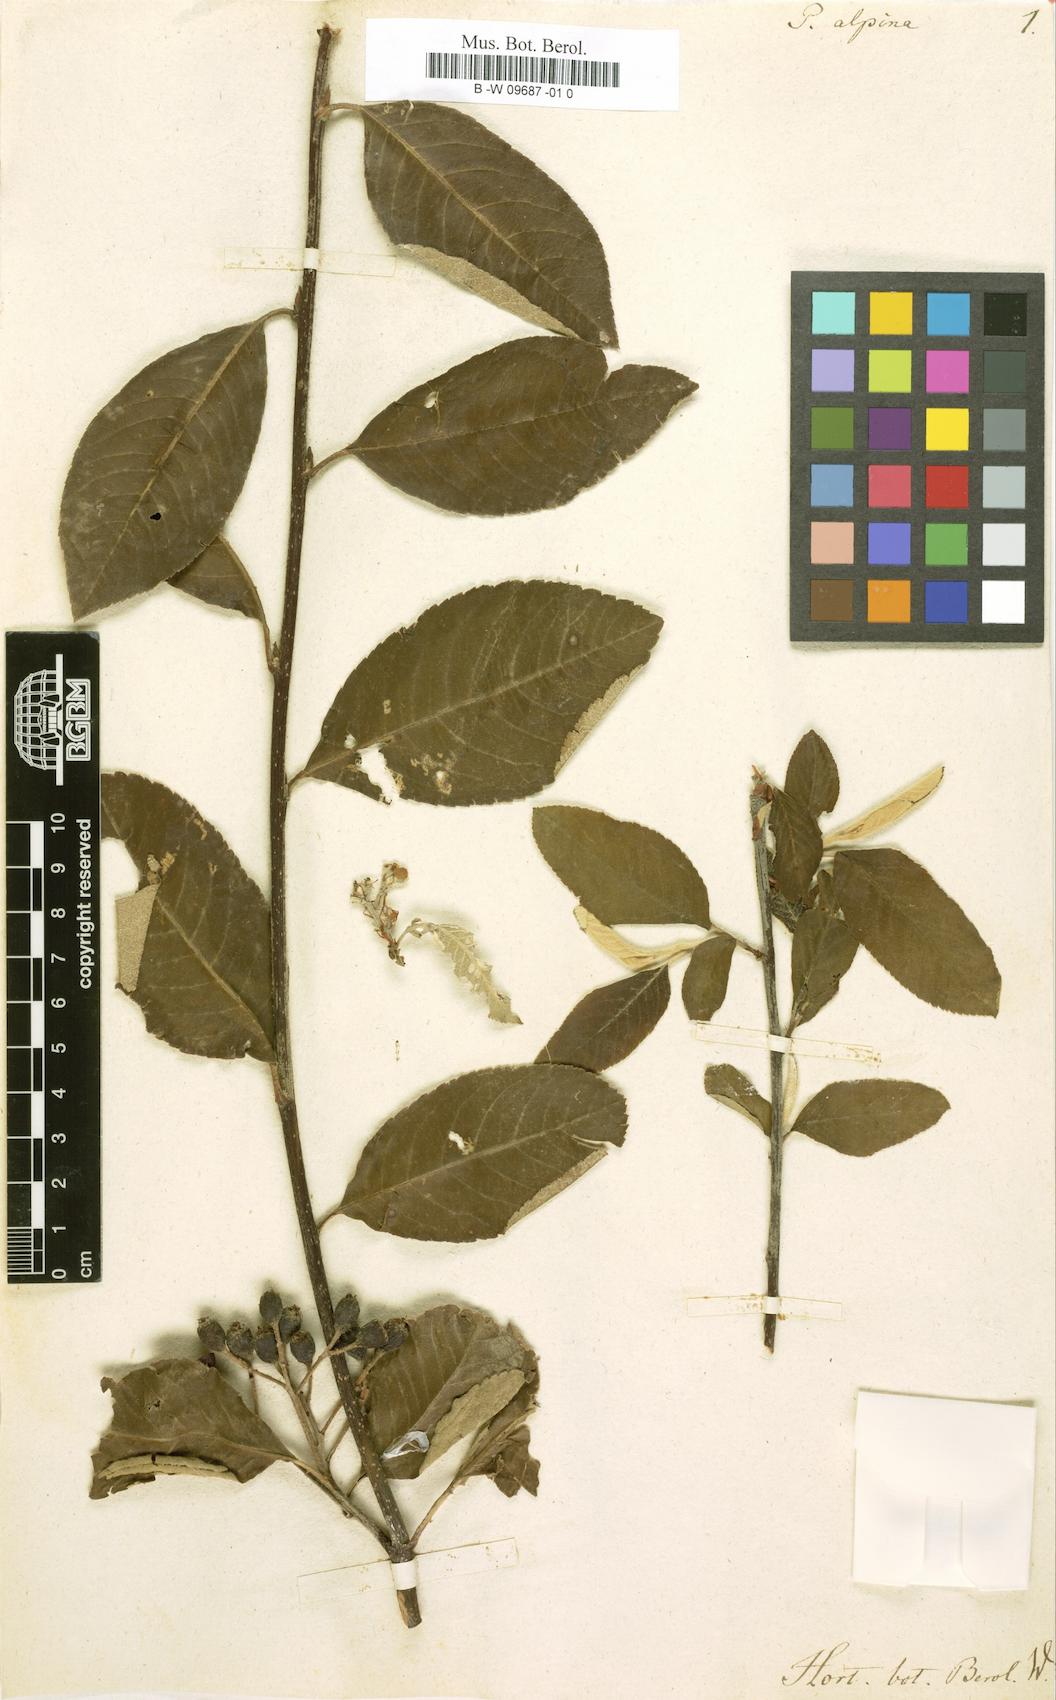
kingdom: Plantae
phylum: Tracheophyta
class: Magnoliopsida
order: Rosales
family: Rosaceae
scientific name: Rosaceae
